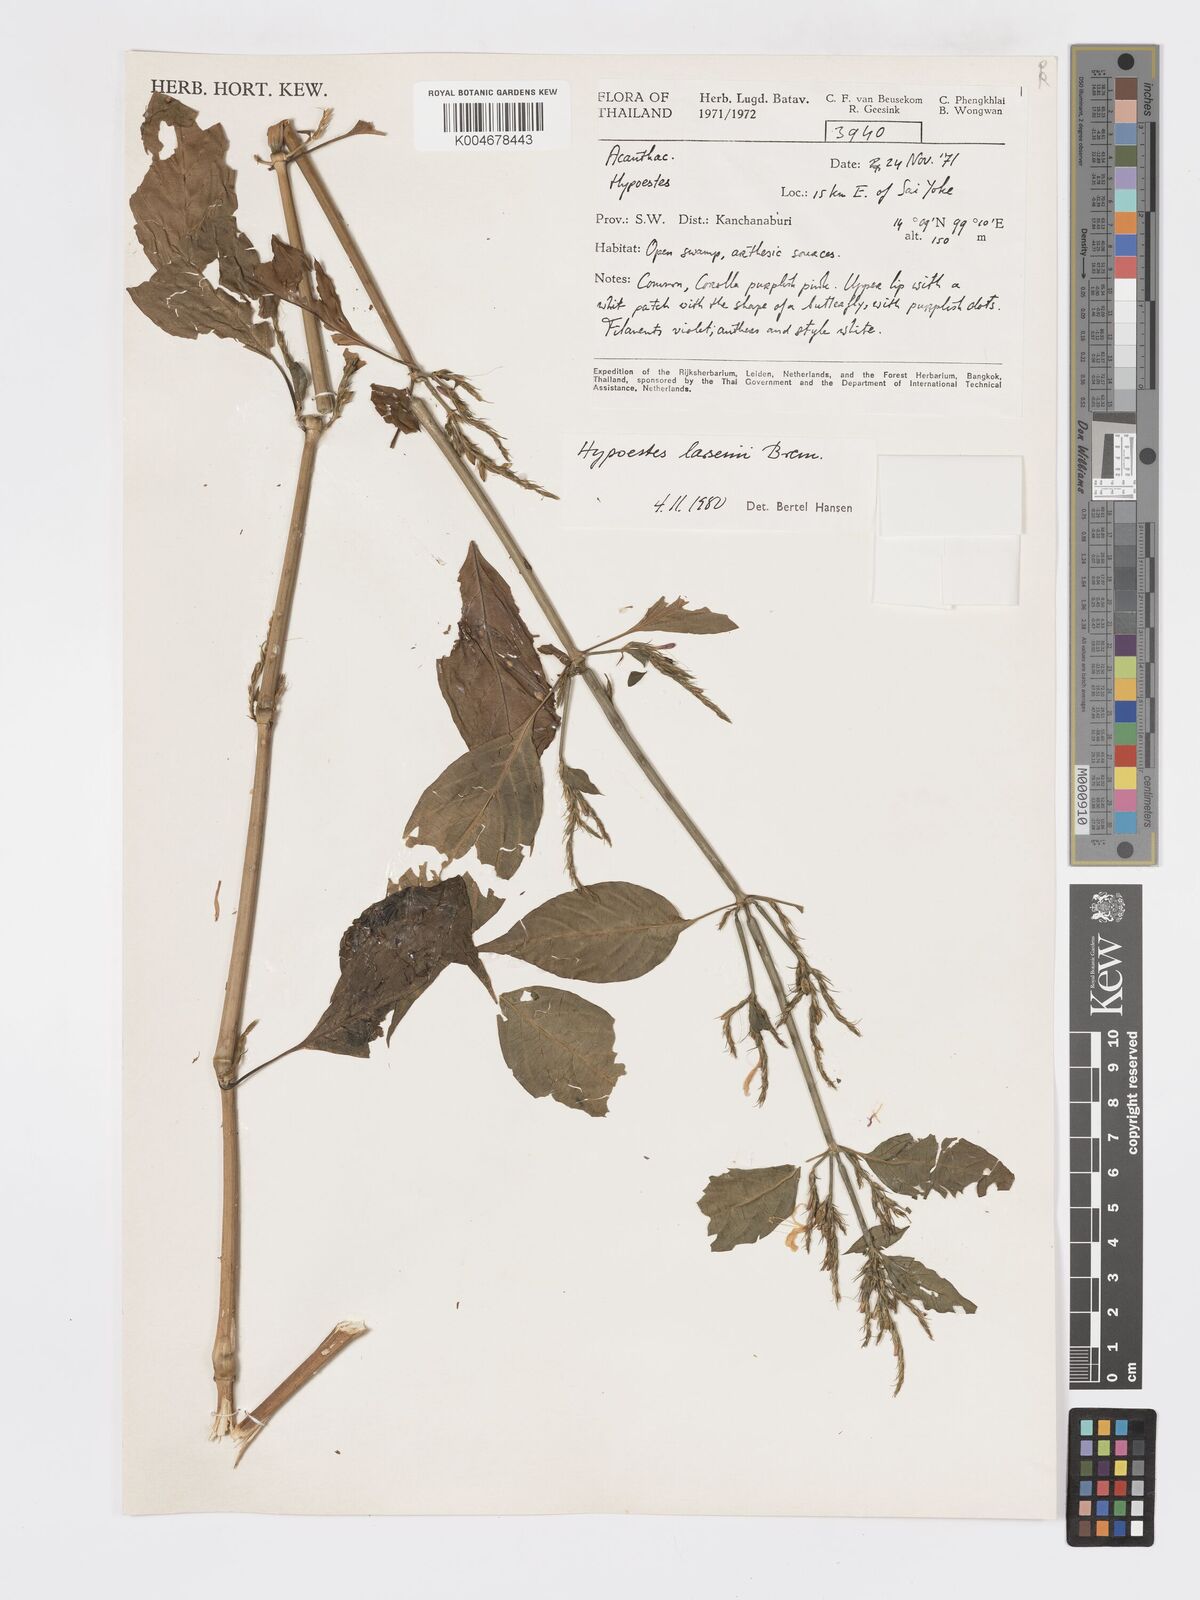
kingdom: Plantae
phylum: Tracheophyta
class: Magnoliopsida
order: Lamiales
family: Acanthaceae
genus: Hypoestes
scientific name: Hypoestes larsenii
